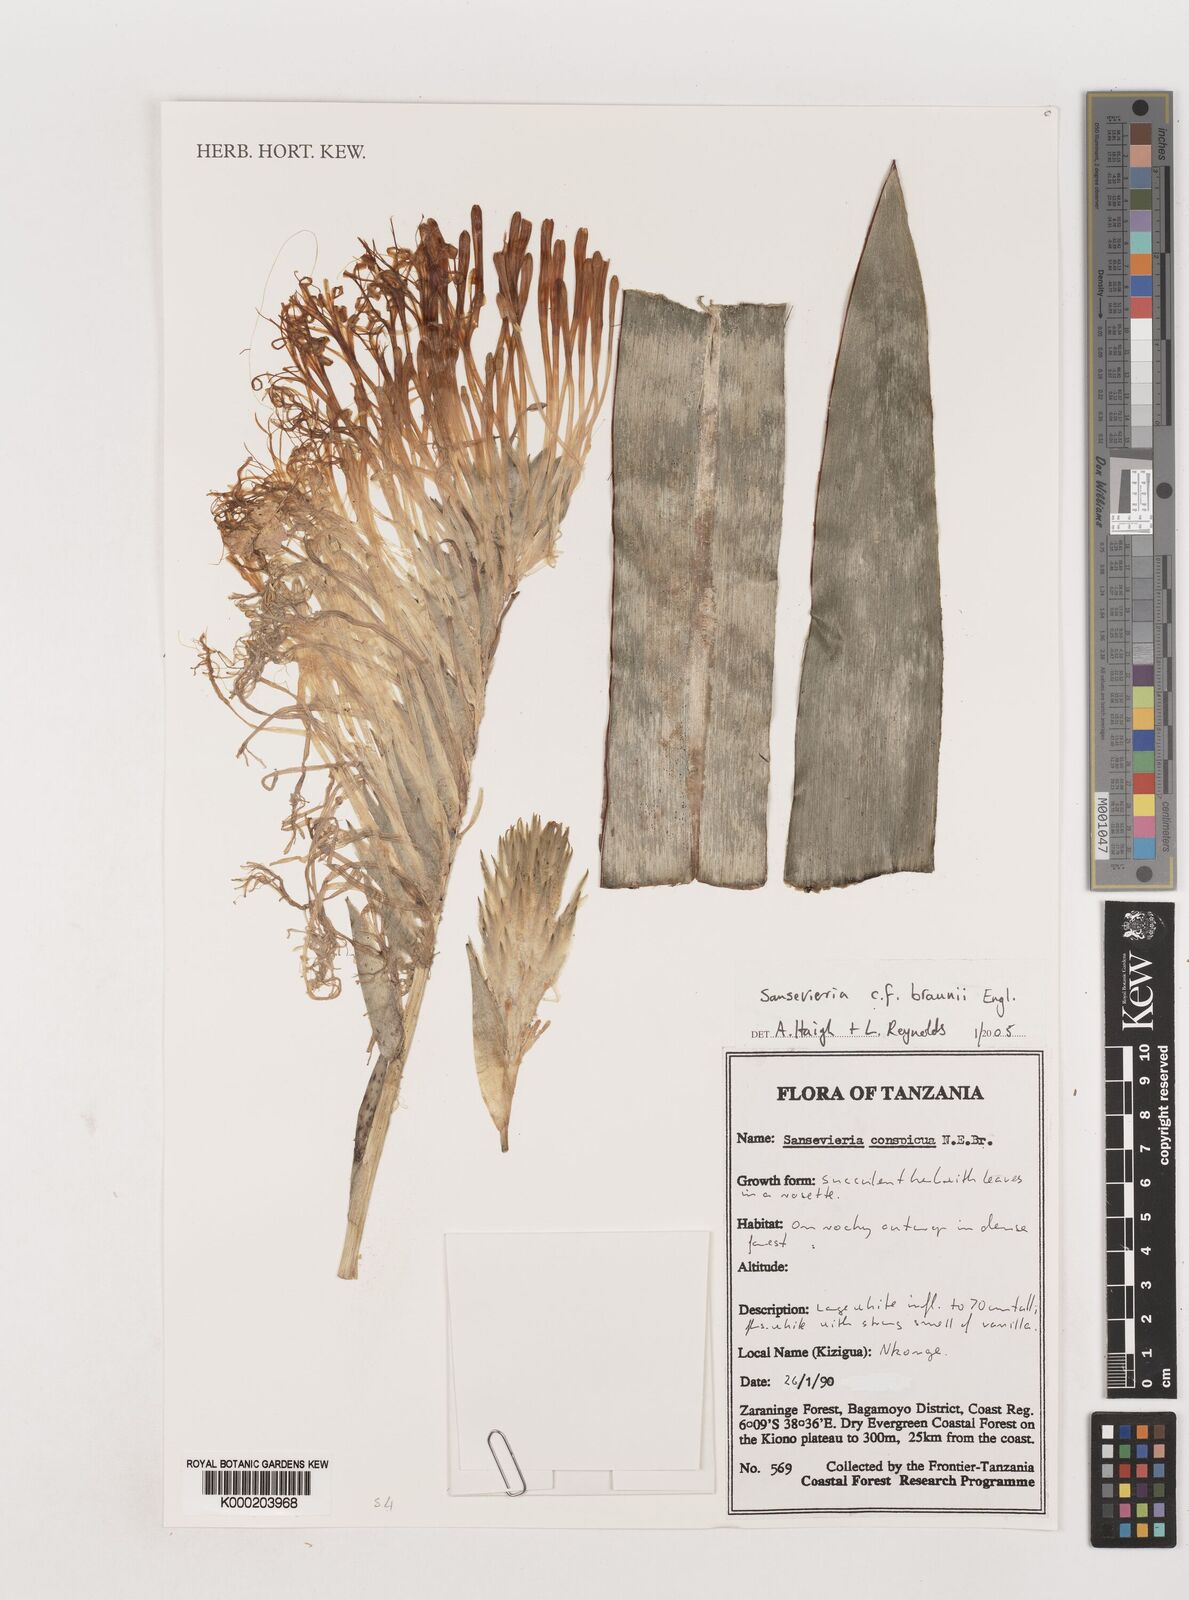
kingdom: Plantae
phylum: Tracheophyta
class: Liliopsida
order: Asparagales
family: Asparagaceae
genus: Dracaena
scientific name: Dracaena testudinea
